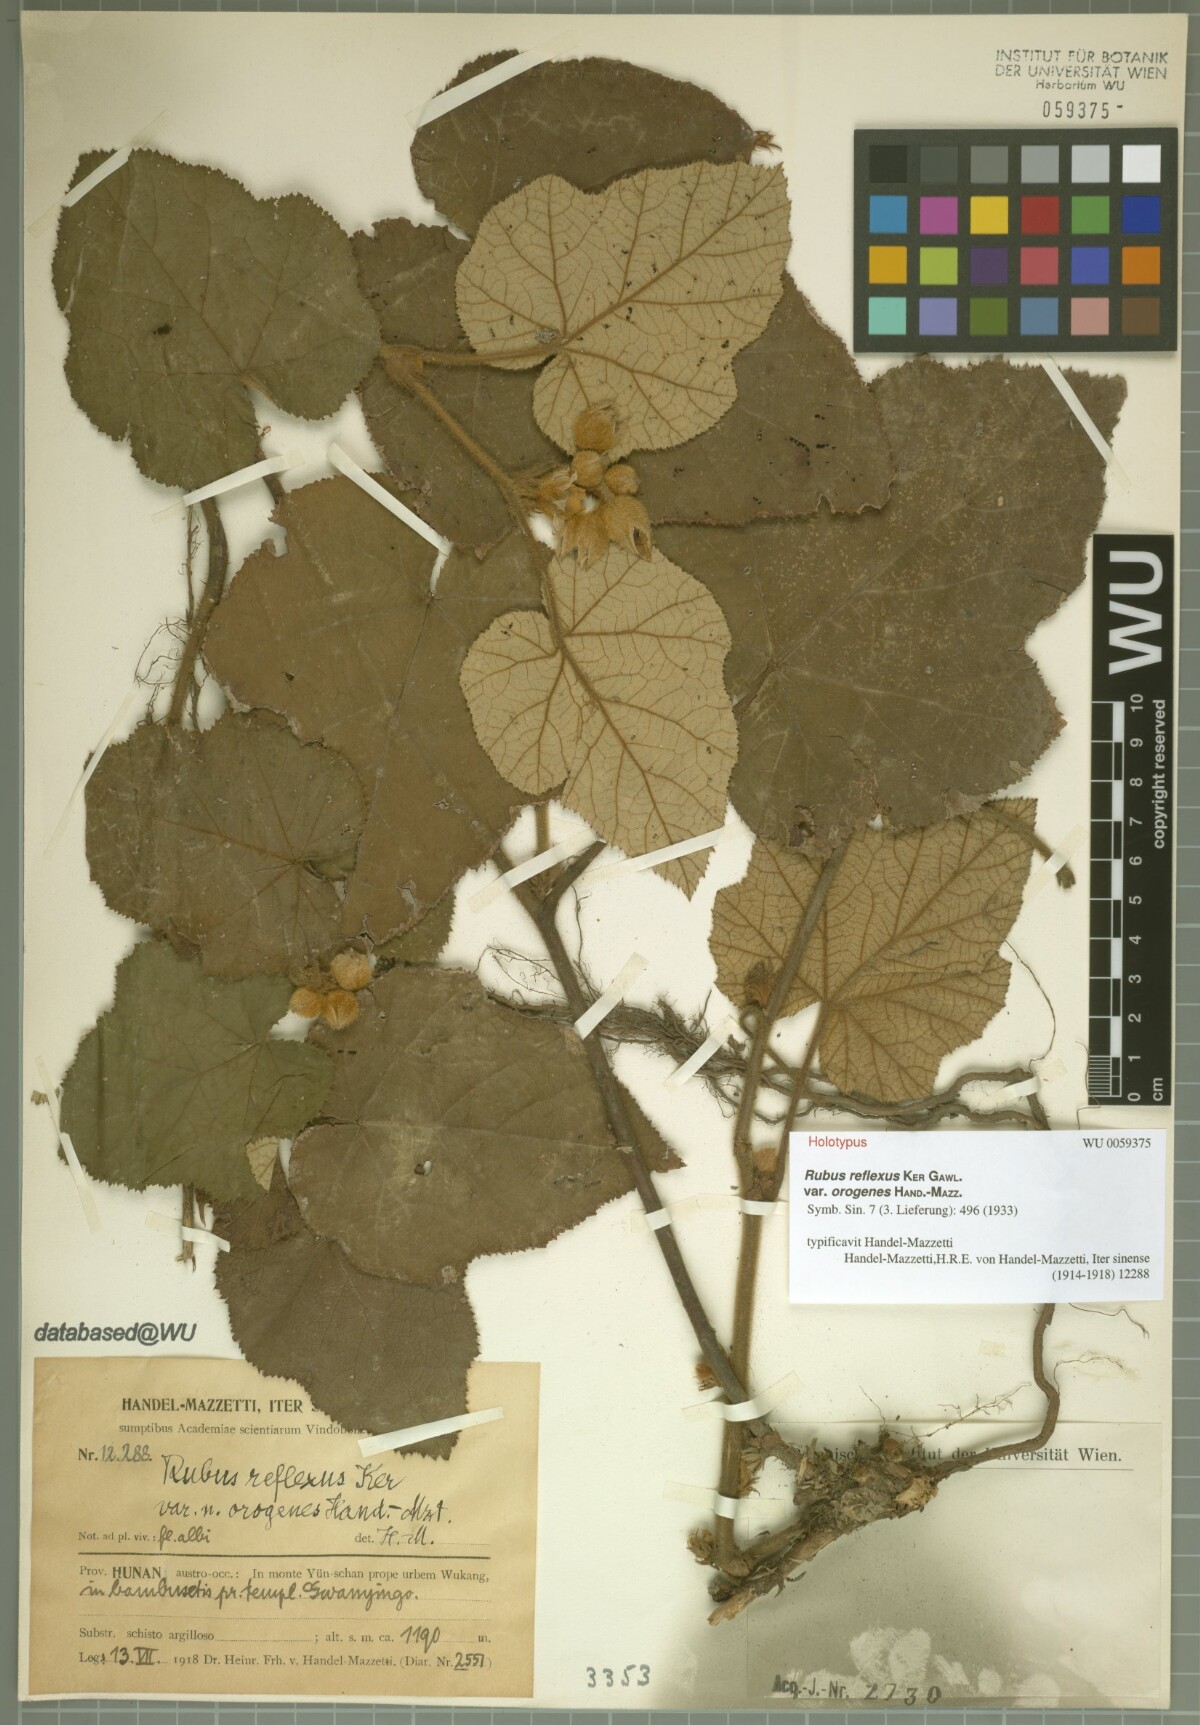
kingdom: Plantae
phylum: Tracheophyta
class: Magnoliopsida
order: Rosales
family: Rosaceae
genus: Rubus
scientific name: Rubus reflexus
